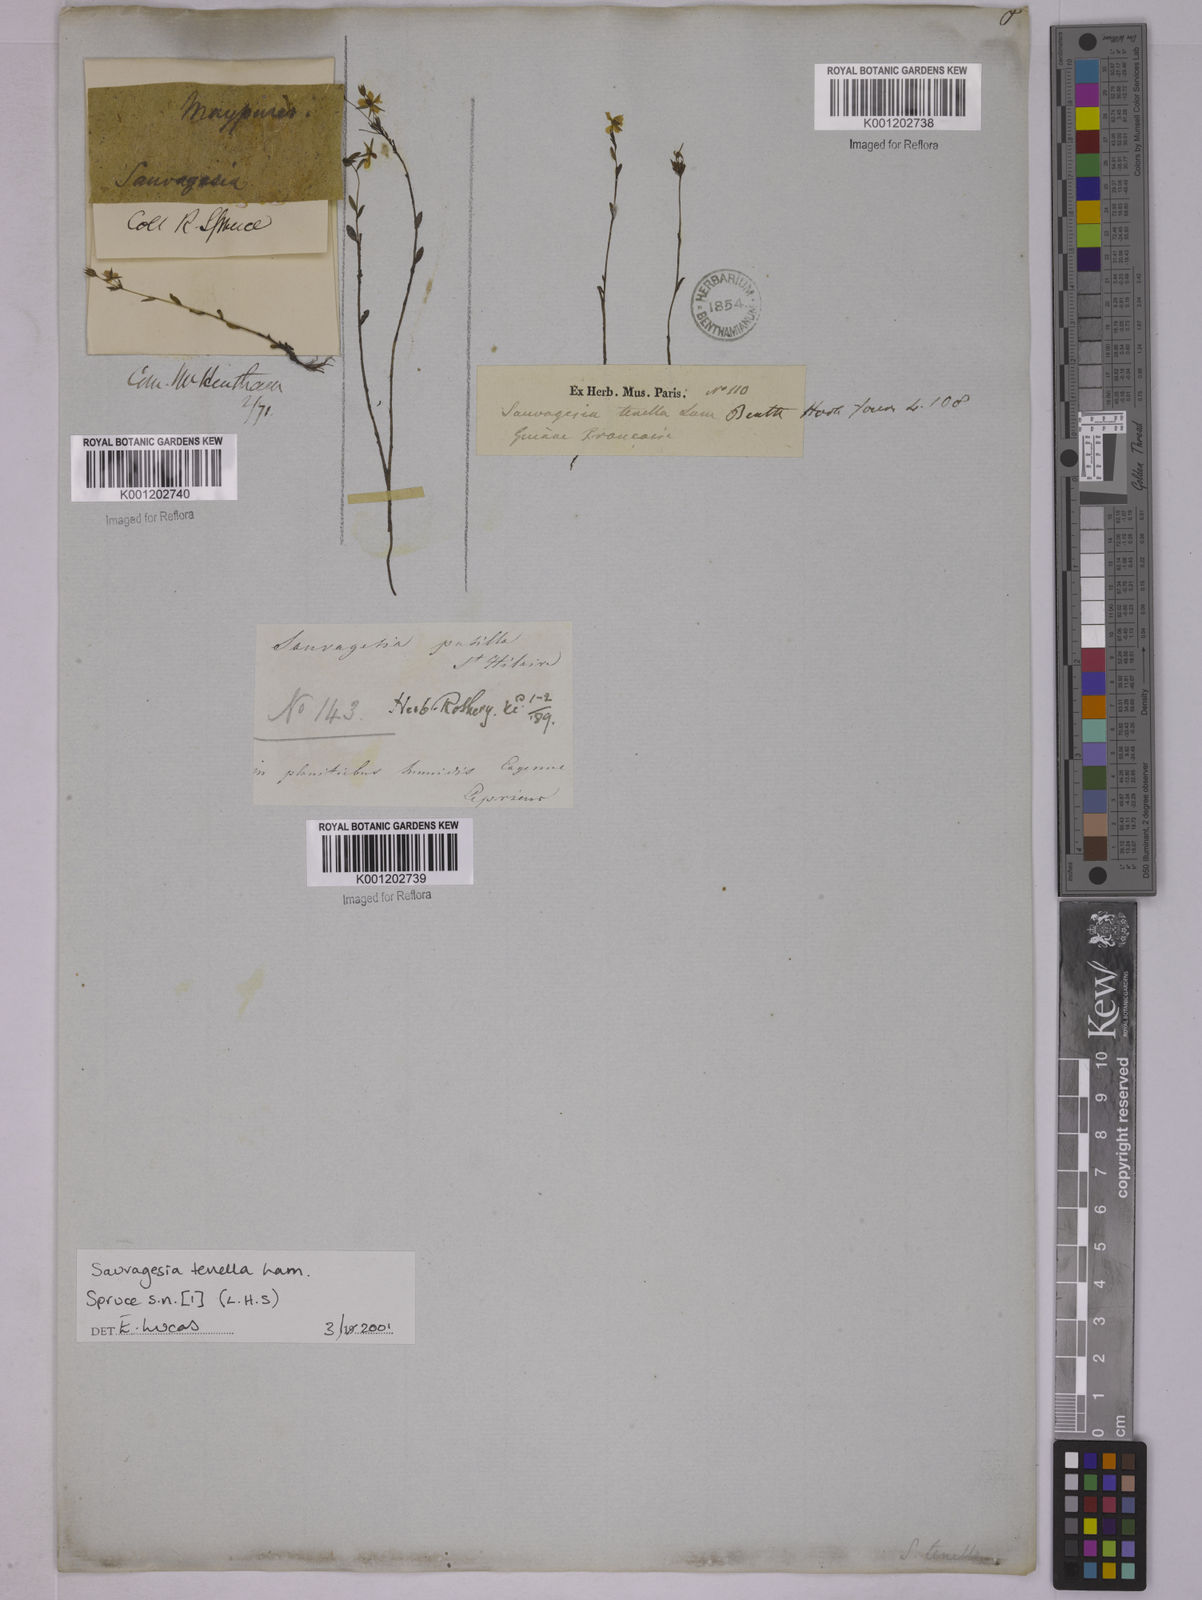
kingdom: Plantae
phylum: Tracheophyta
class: Magnoliopsida
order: Malpighiales
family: Ochnaceae
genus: Sauvagesia
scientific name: Sauvagesia tenella
